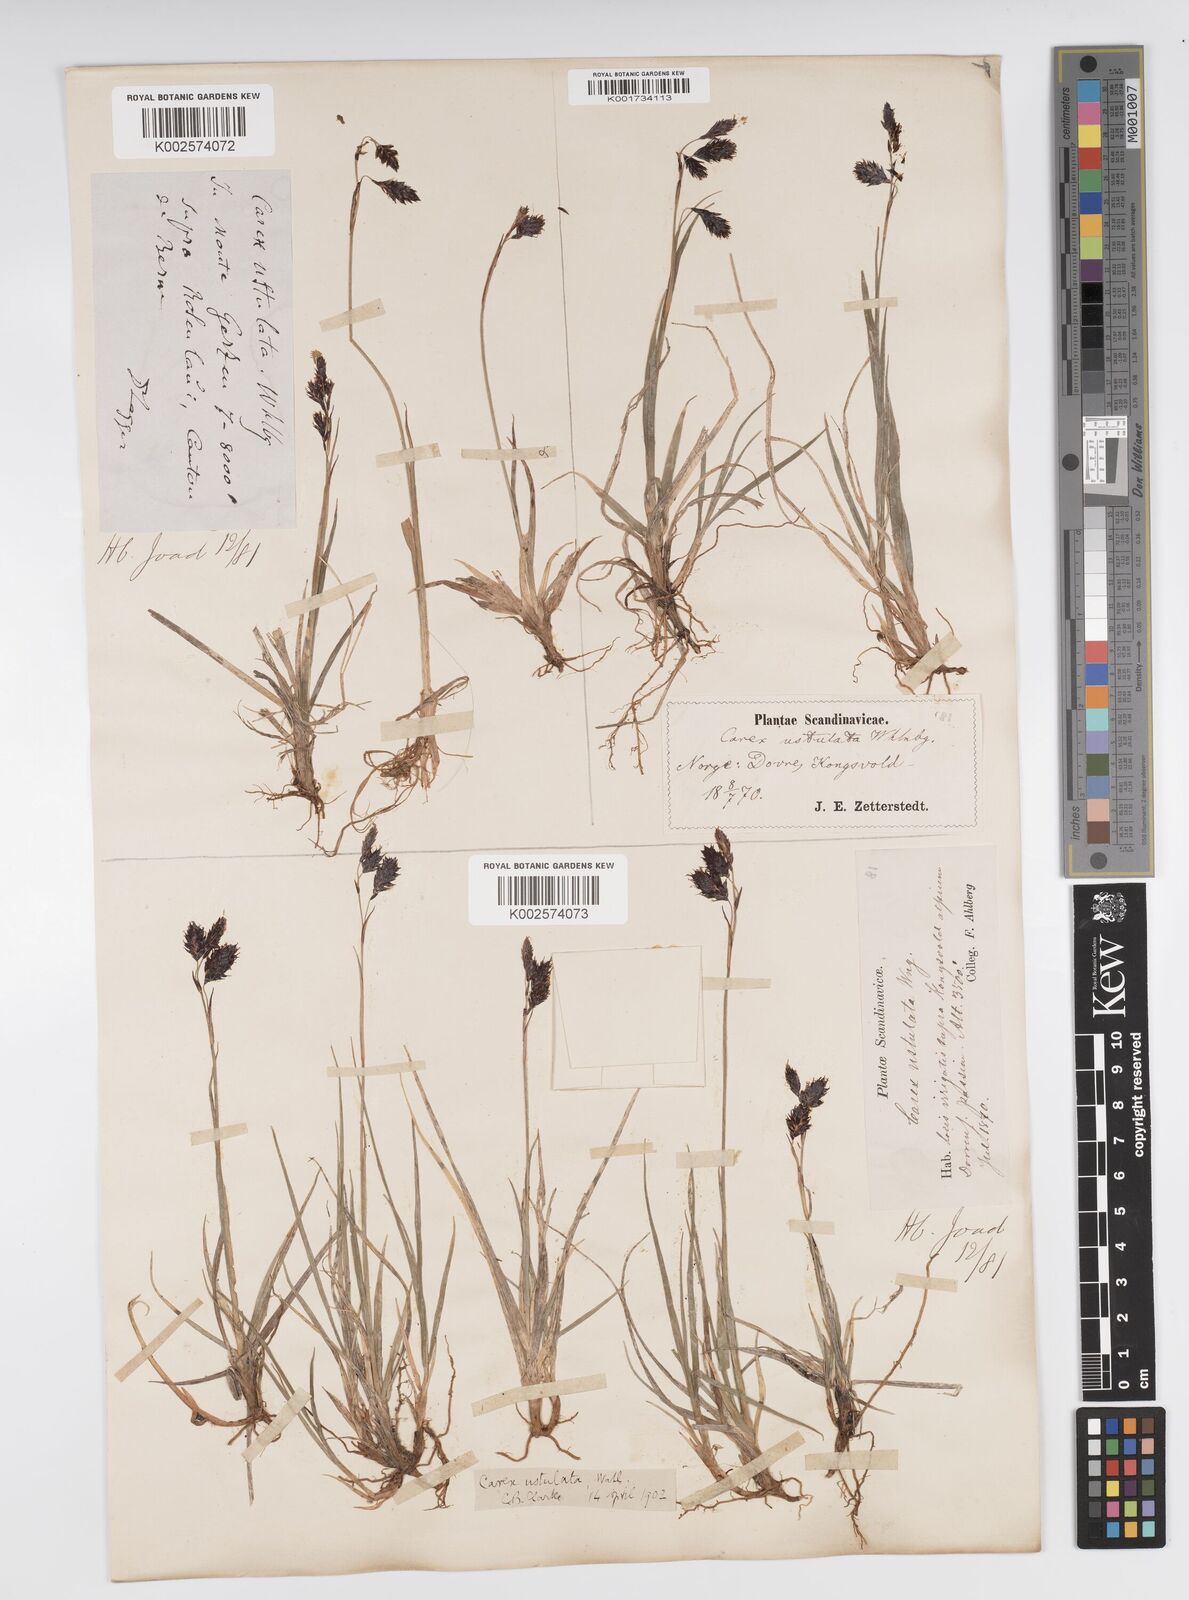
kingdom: Plantae
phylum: Tracheophyta
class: Liliopsida
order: Poales
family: Cyperaceae
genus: Carex
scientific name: Carex atrofusca
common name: Scorched alpine-sedge
